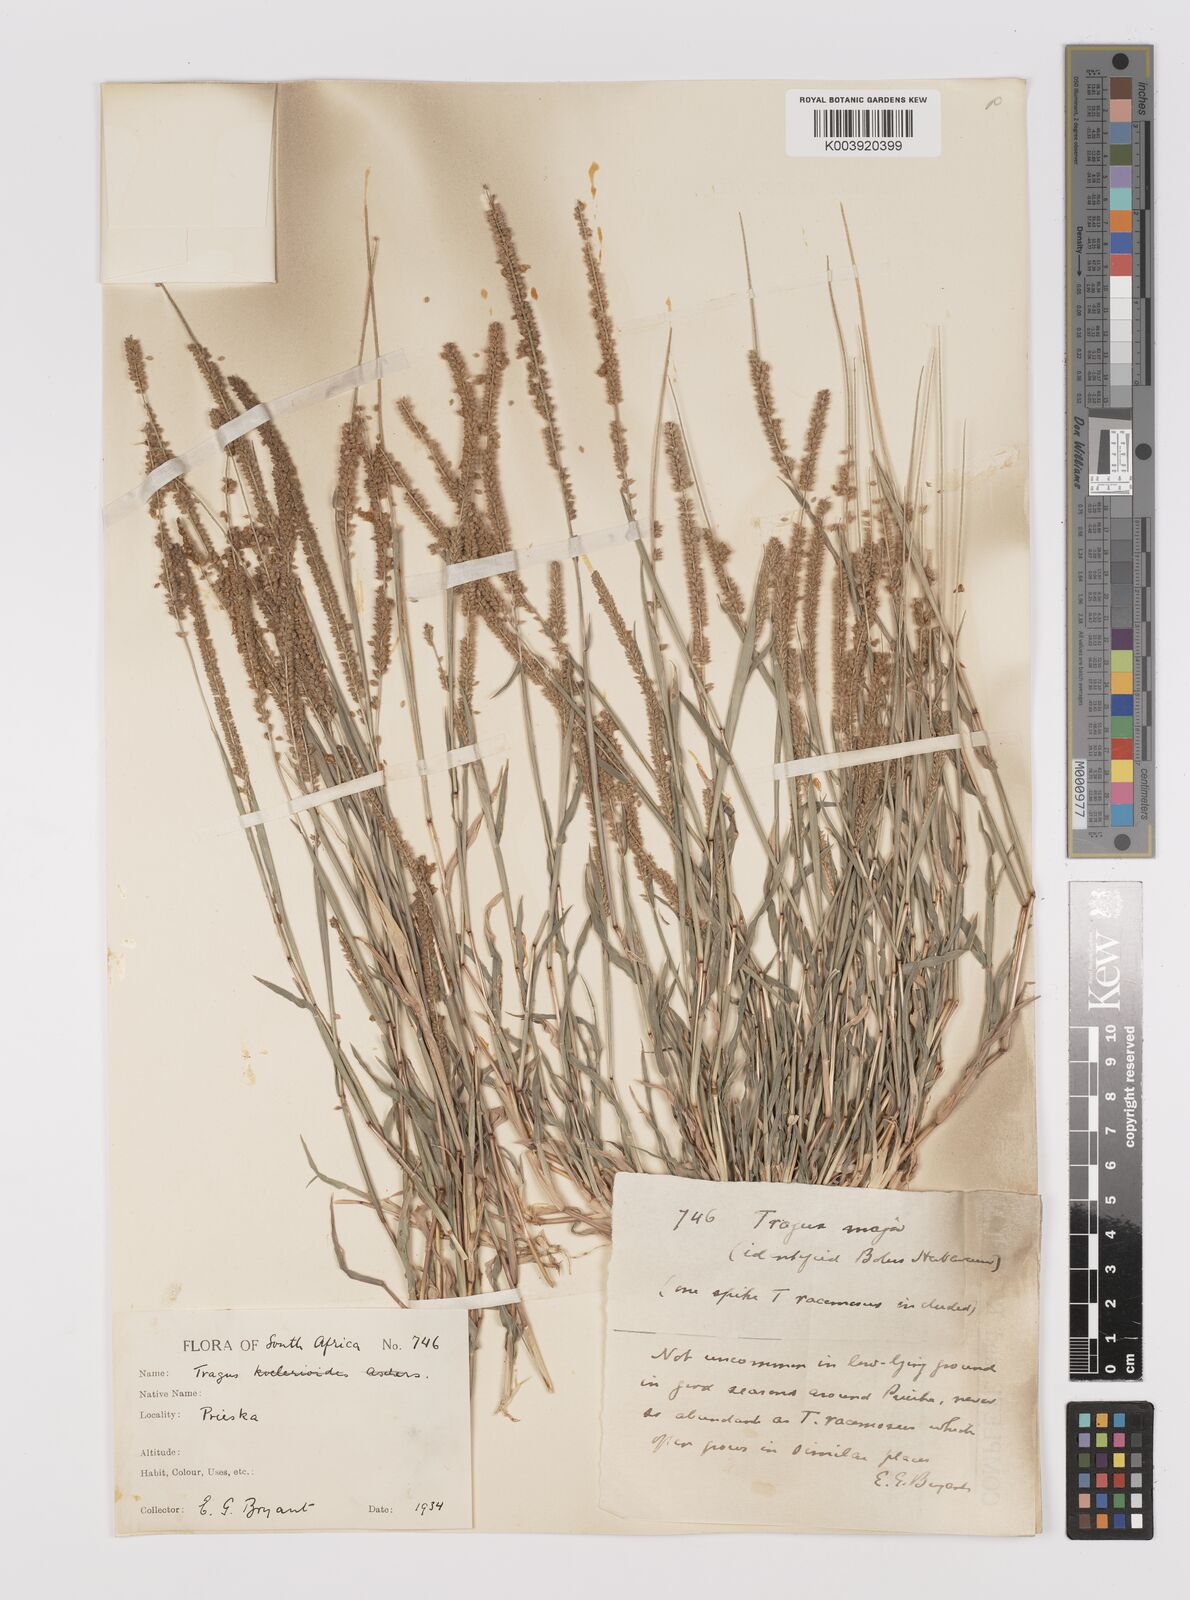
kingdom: Plantae
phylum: Tracheophyta
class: Liliopsida
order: Poales
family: Poaceae
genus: Tragus
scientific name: Tragus berteronianus
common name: African bur-grass
